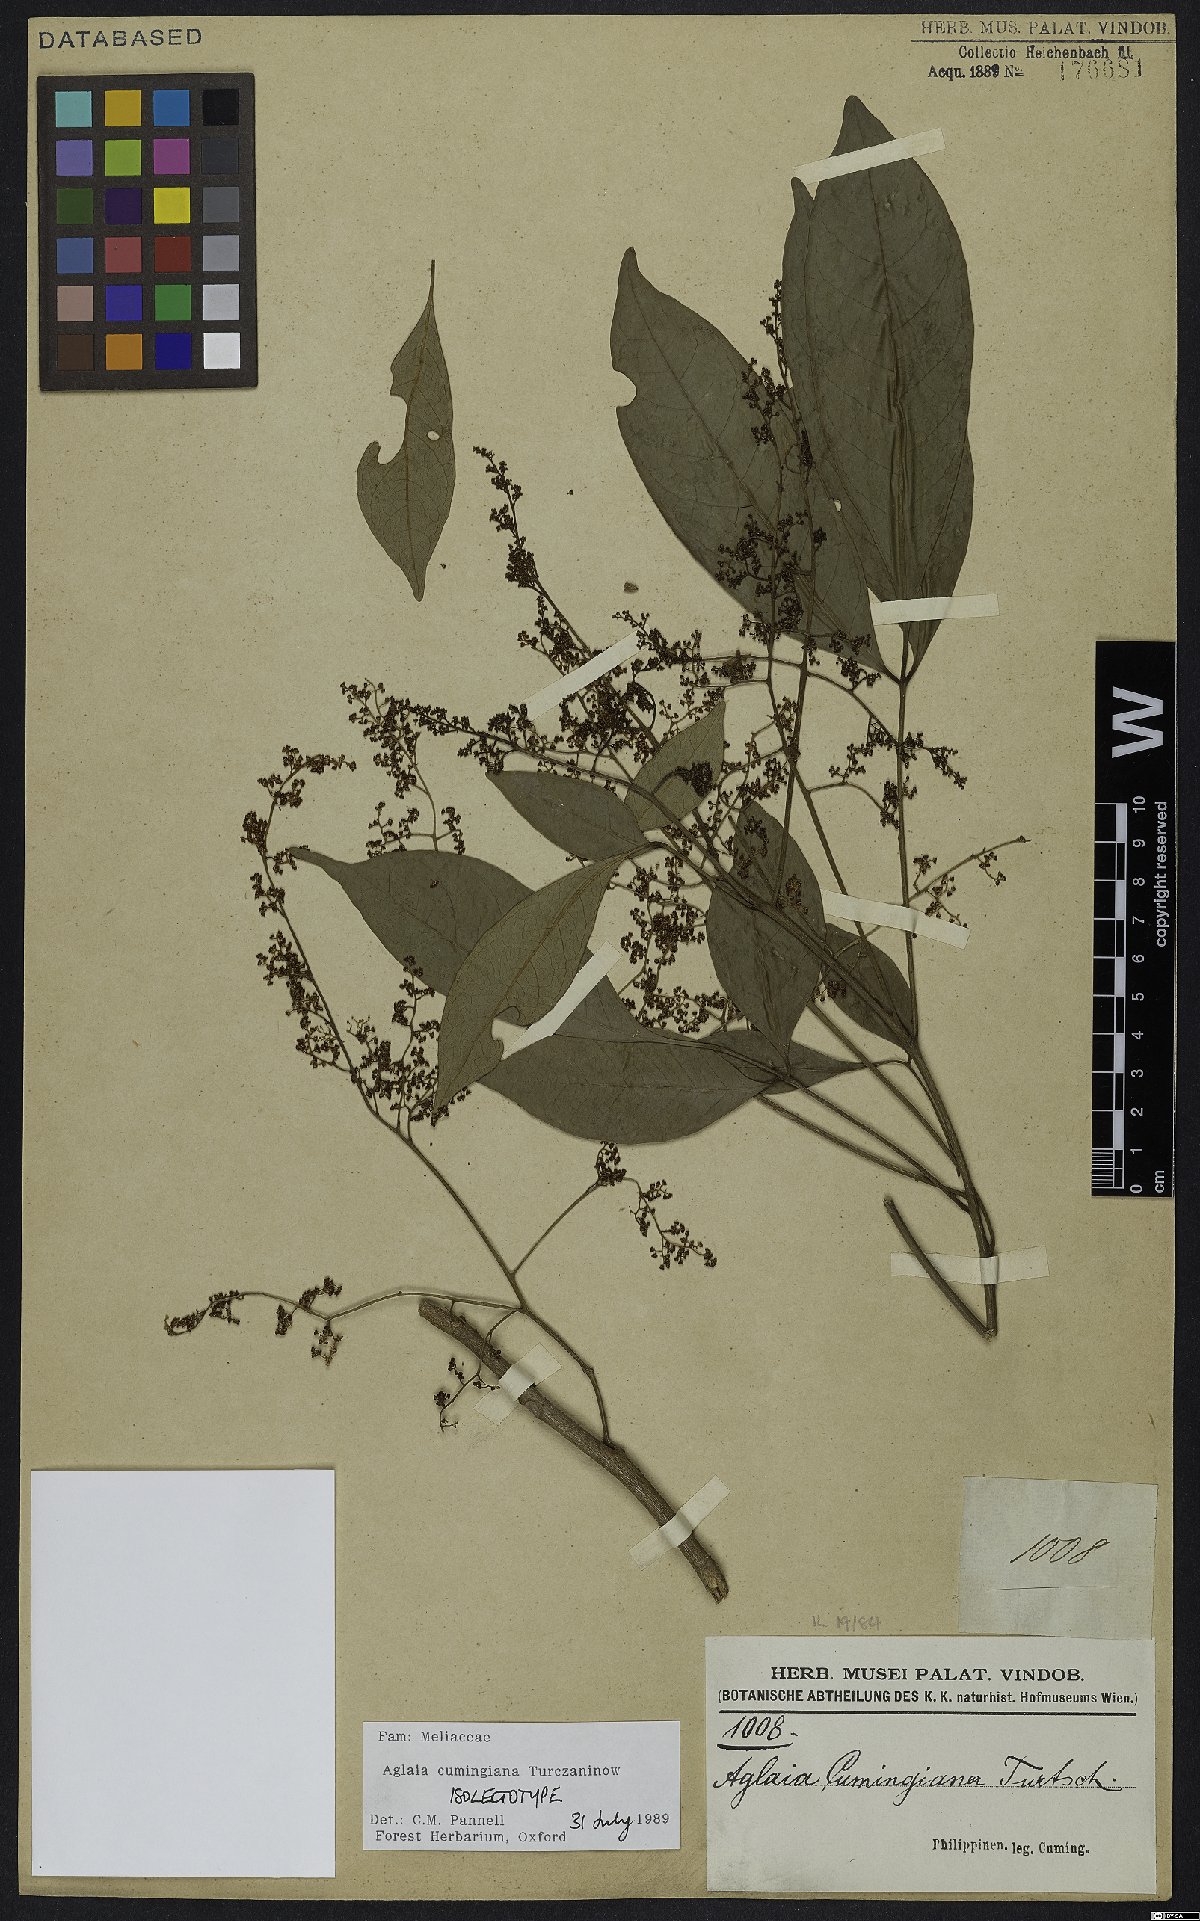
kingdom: Plantae
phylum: Tracheophyta
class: Magnoliopsida
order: Sapindales
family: Meliaceae
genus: Aglaia
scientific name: Aglaia cumingiana
